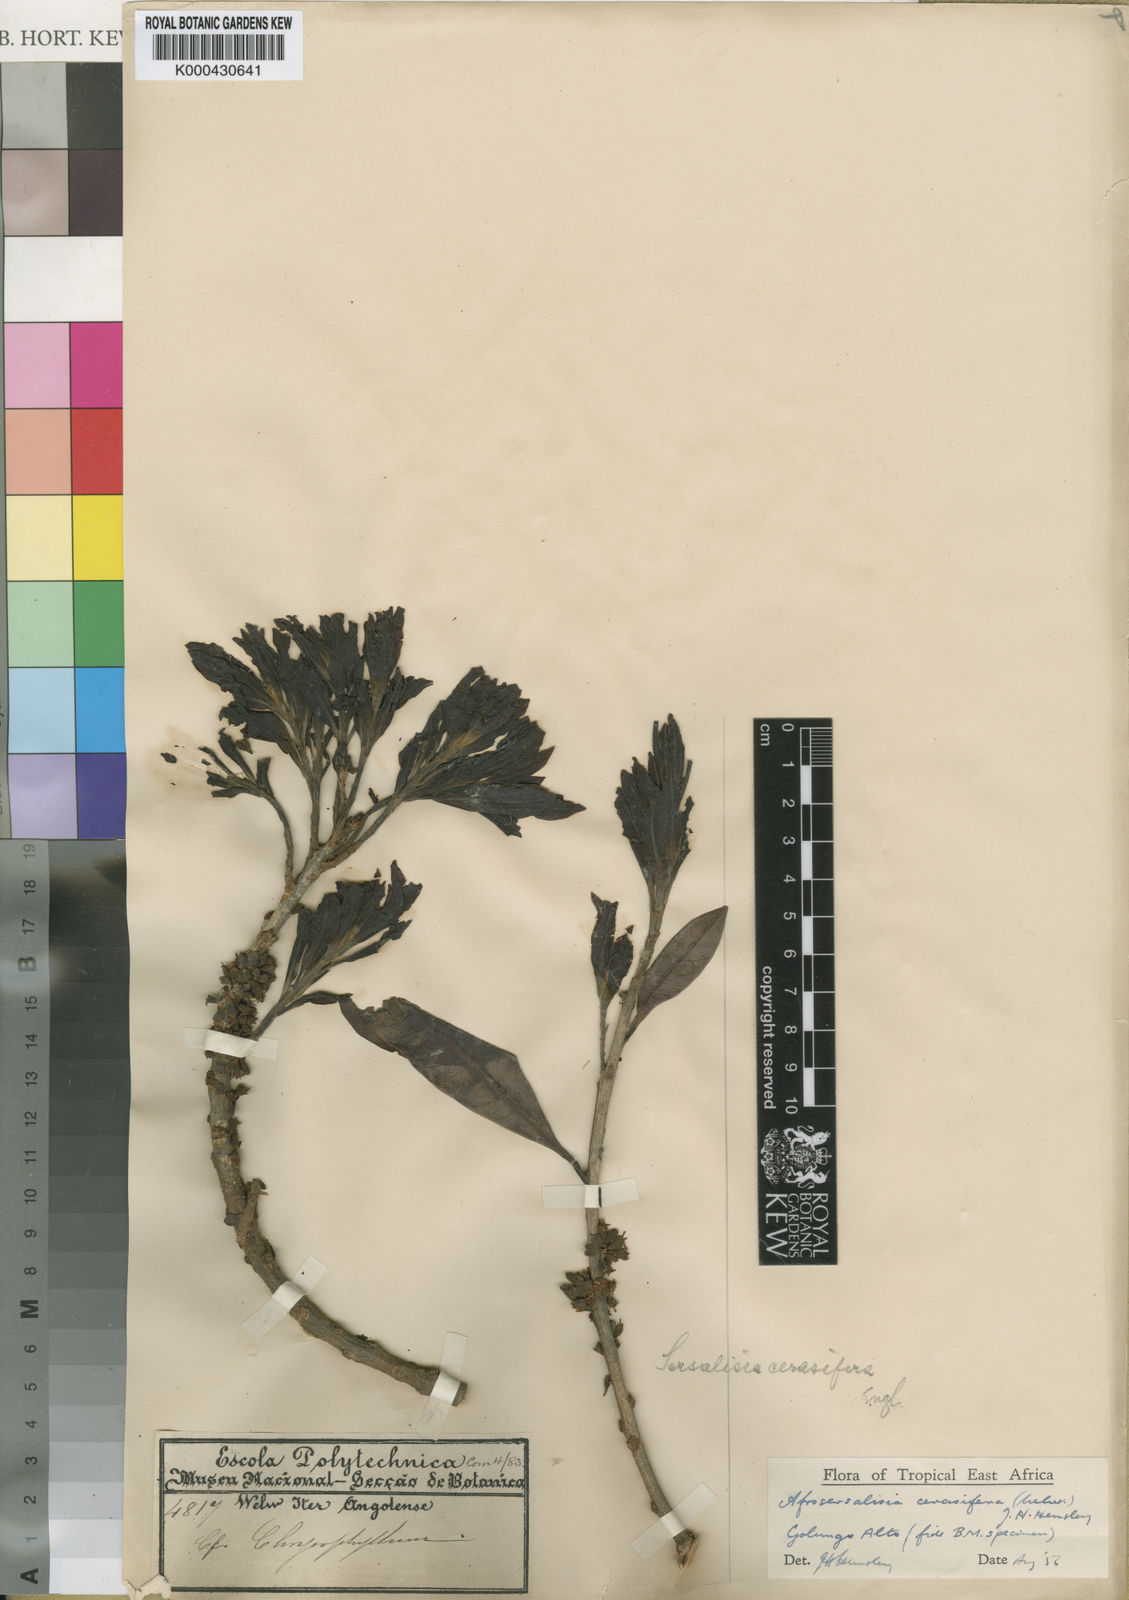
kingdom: Plantae
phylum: Tracheophyta
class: Magnoliopsida
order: Ericales
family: Sapotaceae
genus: Synsepalum
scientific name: Synsepalum
